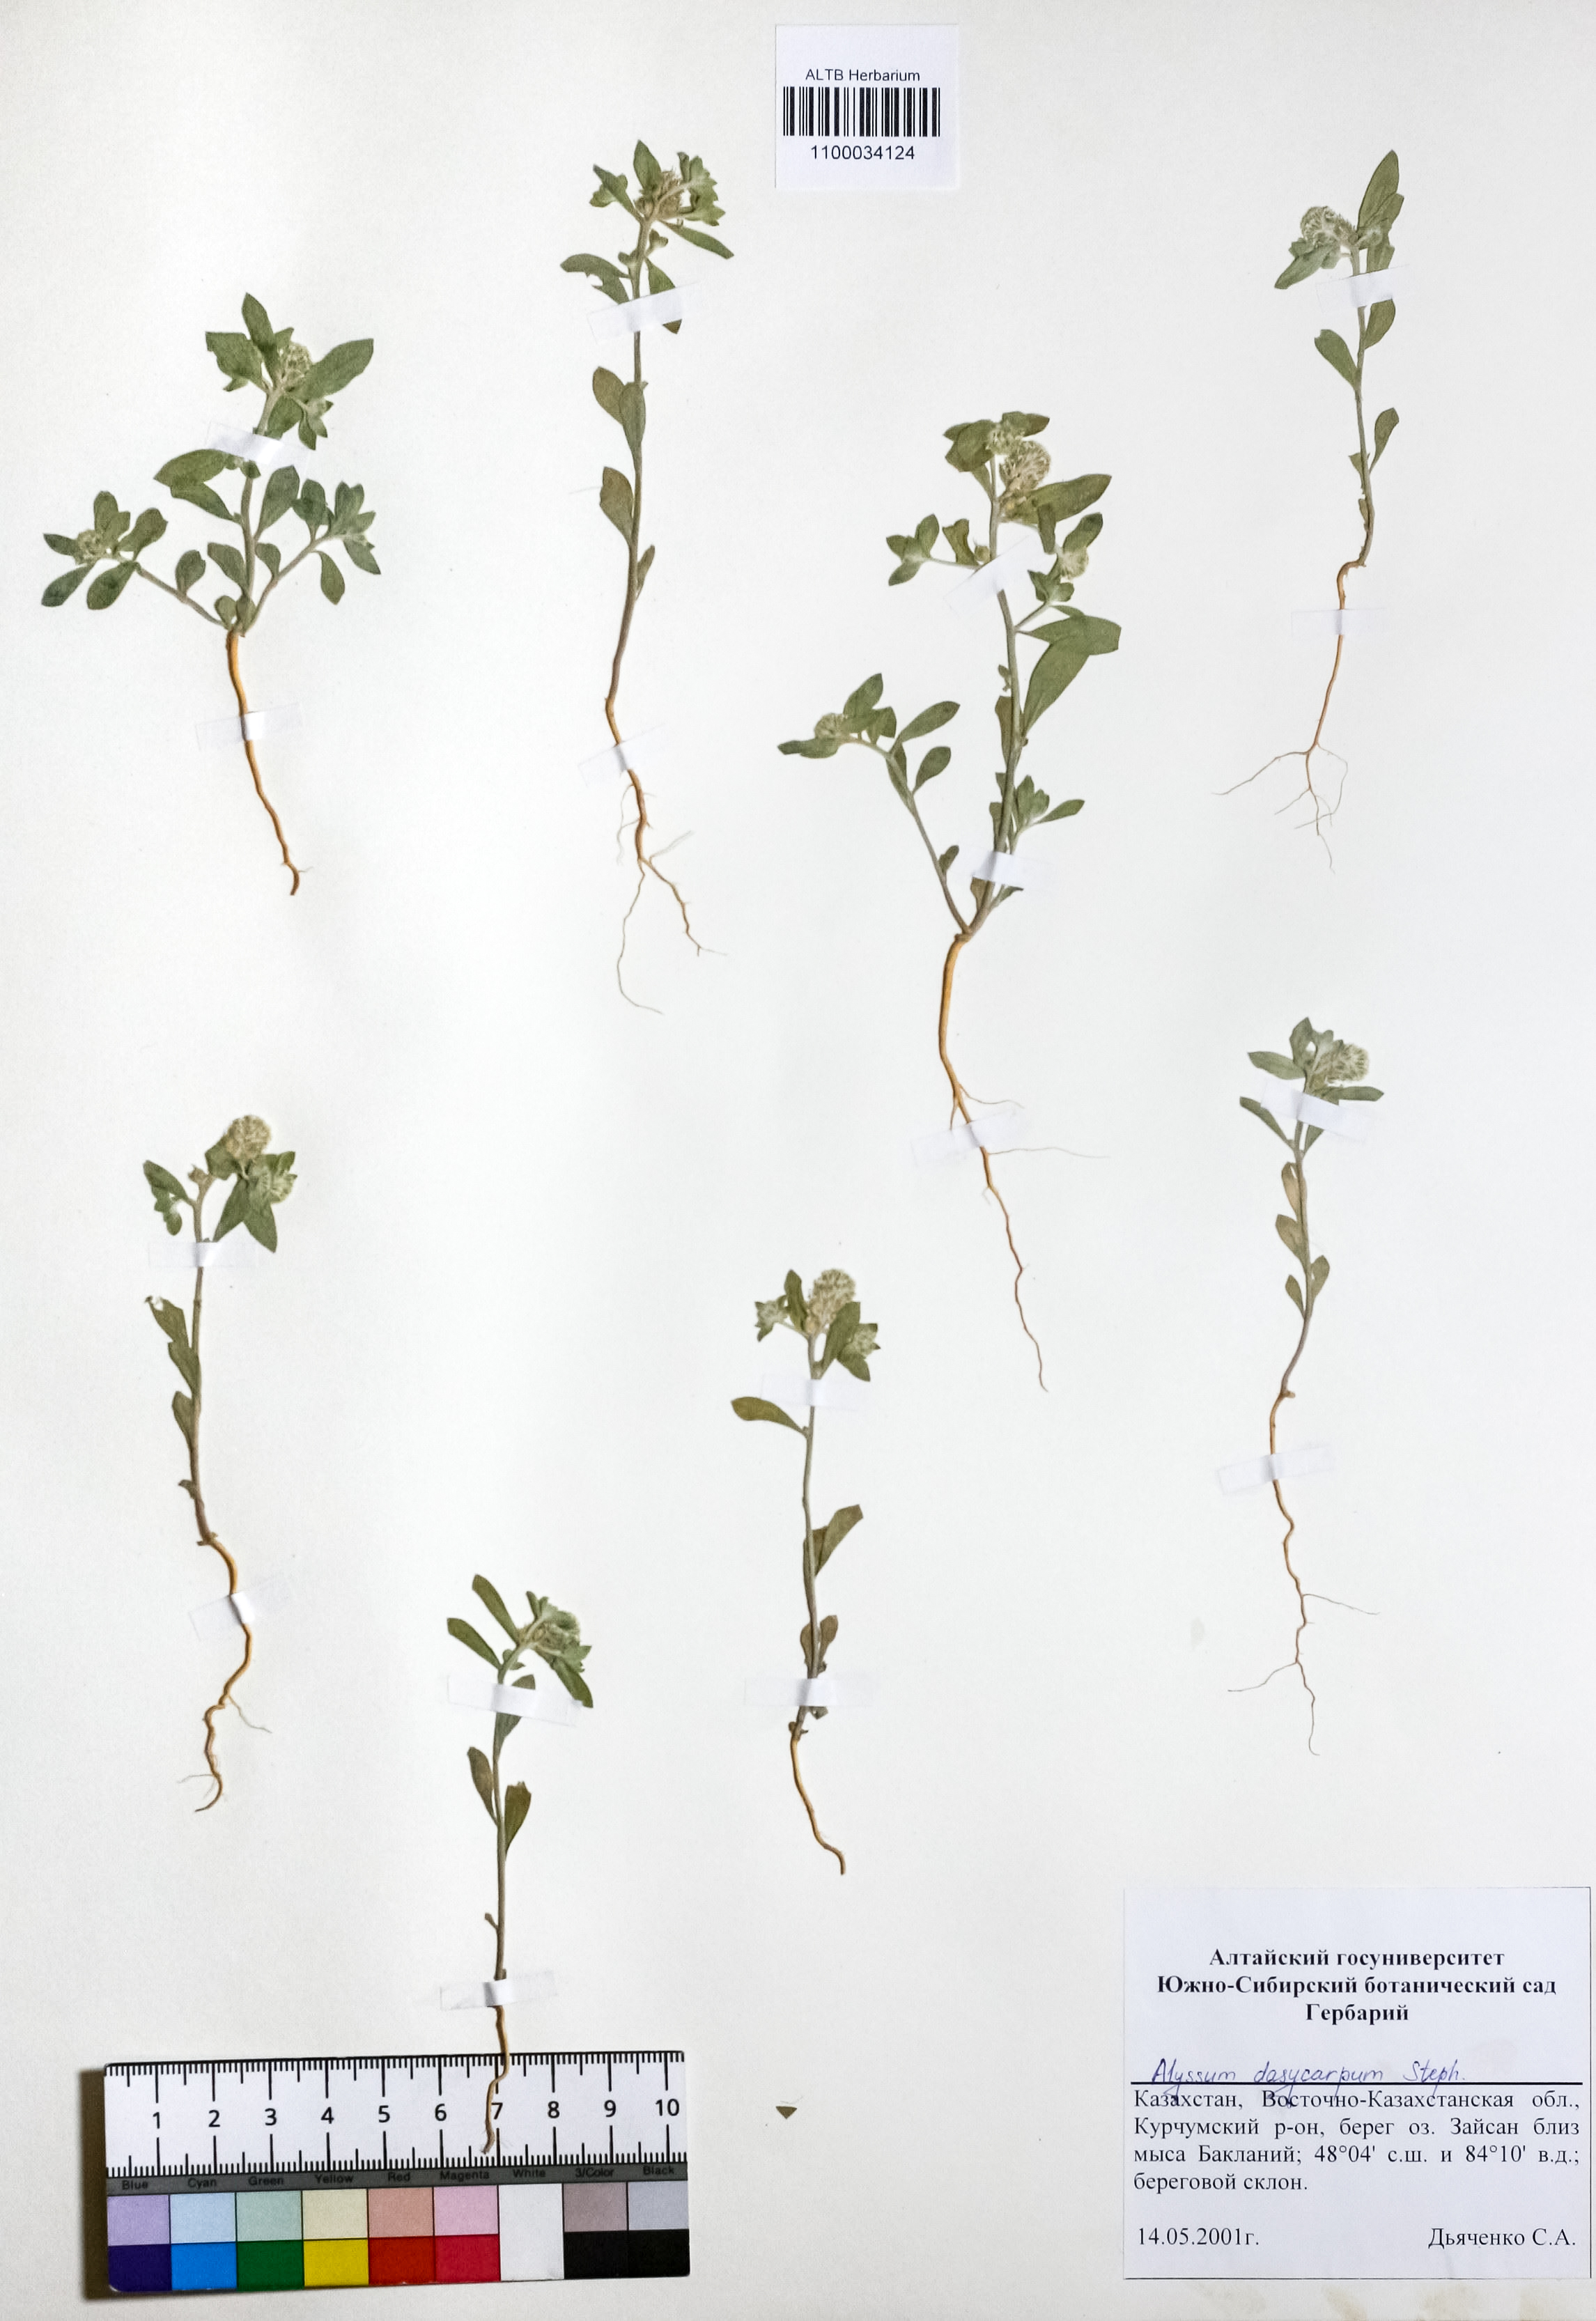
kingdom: Plantae
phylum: Tracheophyta
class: Magnoliopsida
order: Brassicales
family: Brassicaceae
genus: Alyssum
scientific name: Alyssum dasycarpum
